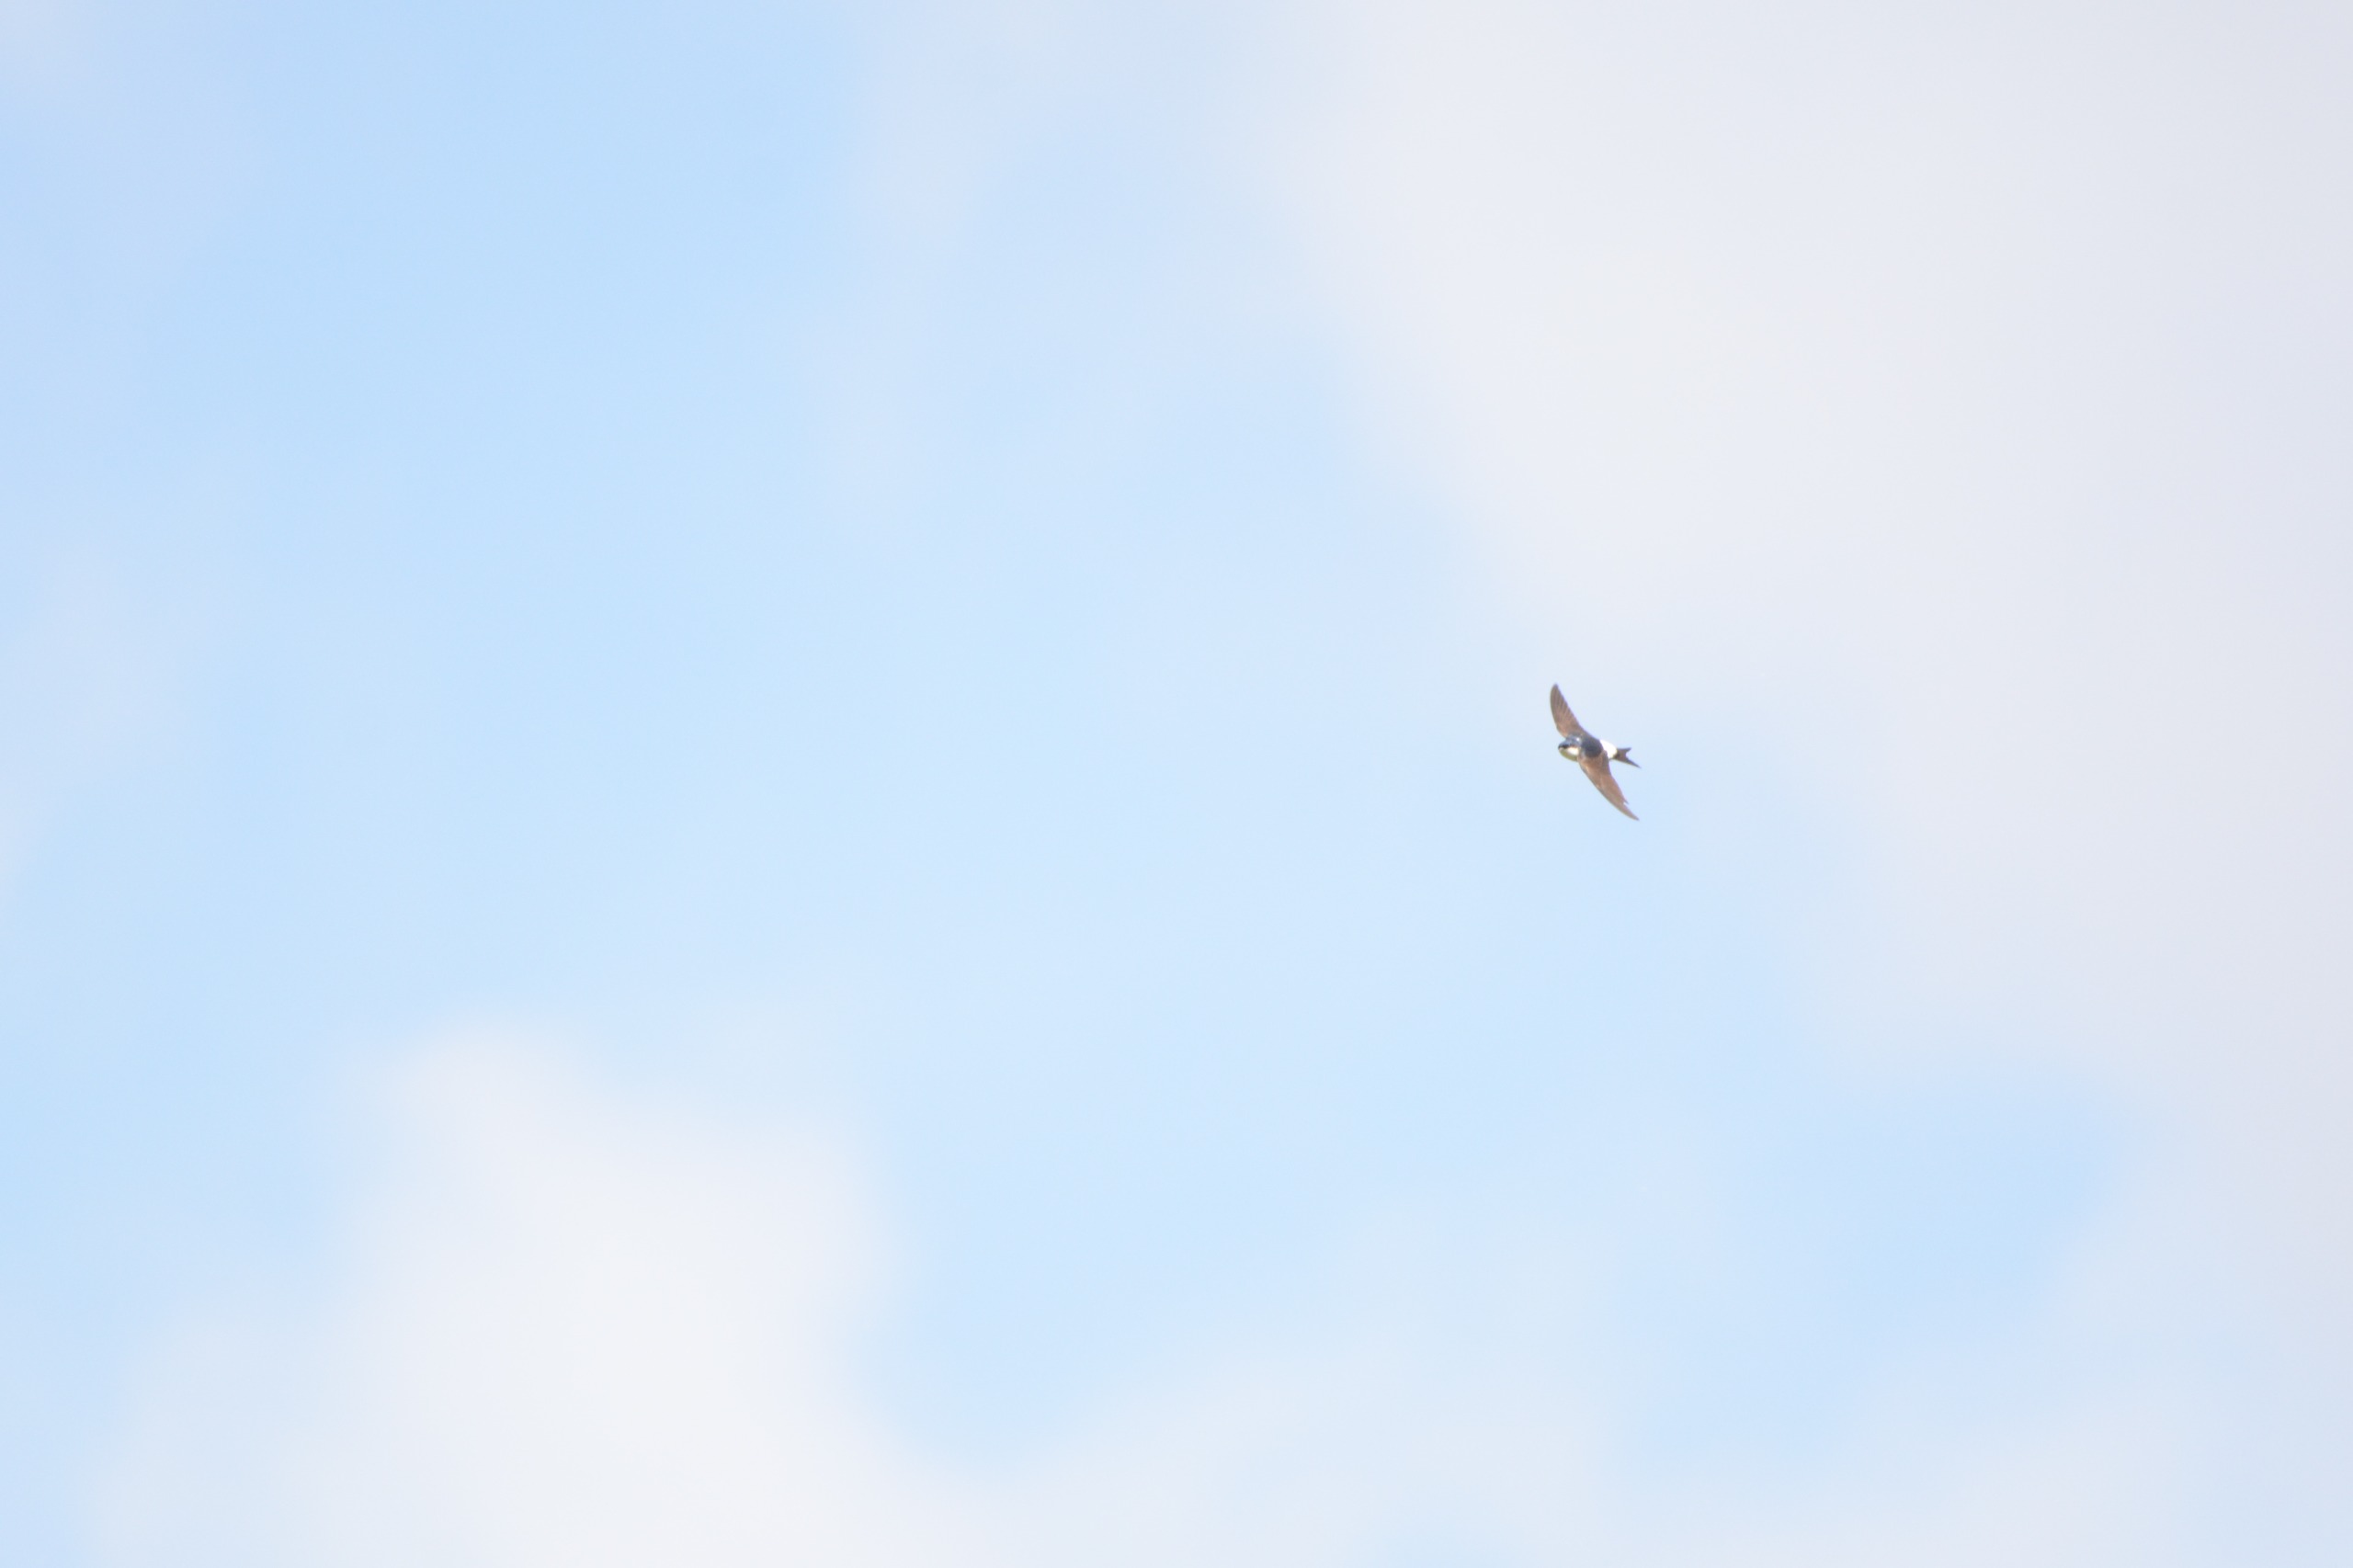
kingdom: Animalia
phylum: Chordata
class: Aves
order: Passeriformes
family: Hirundinidae
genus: Delichon
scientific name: Delichon urbicum
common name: Bysvale
